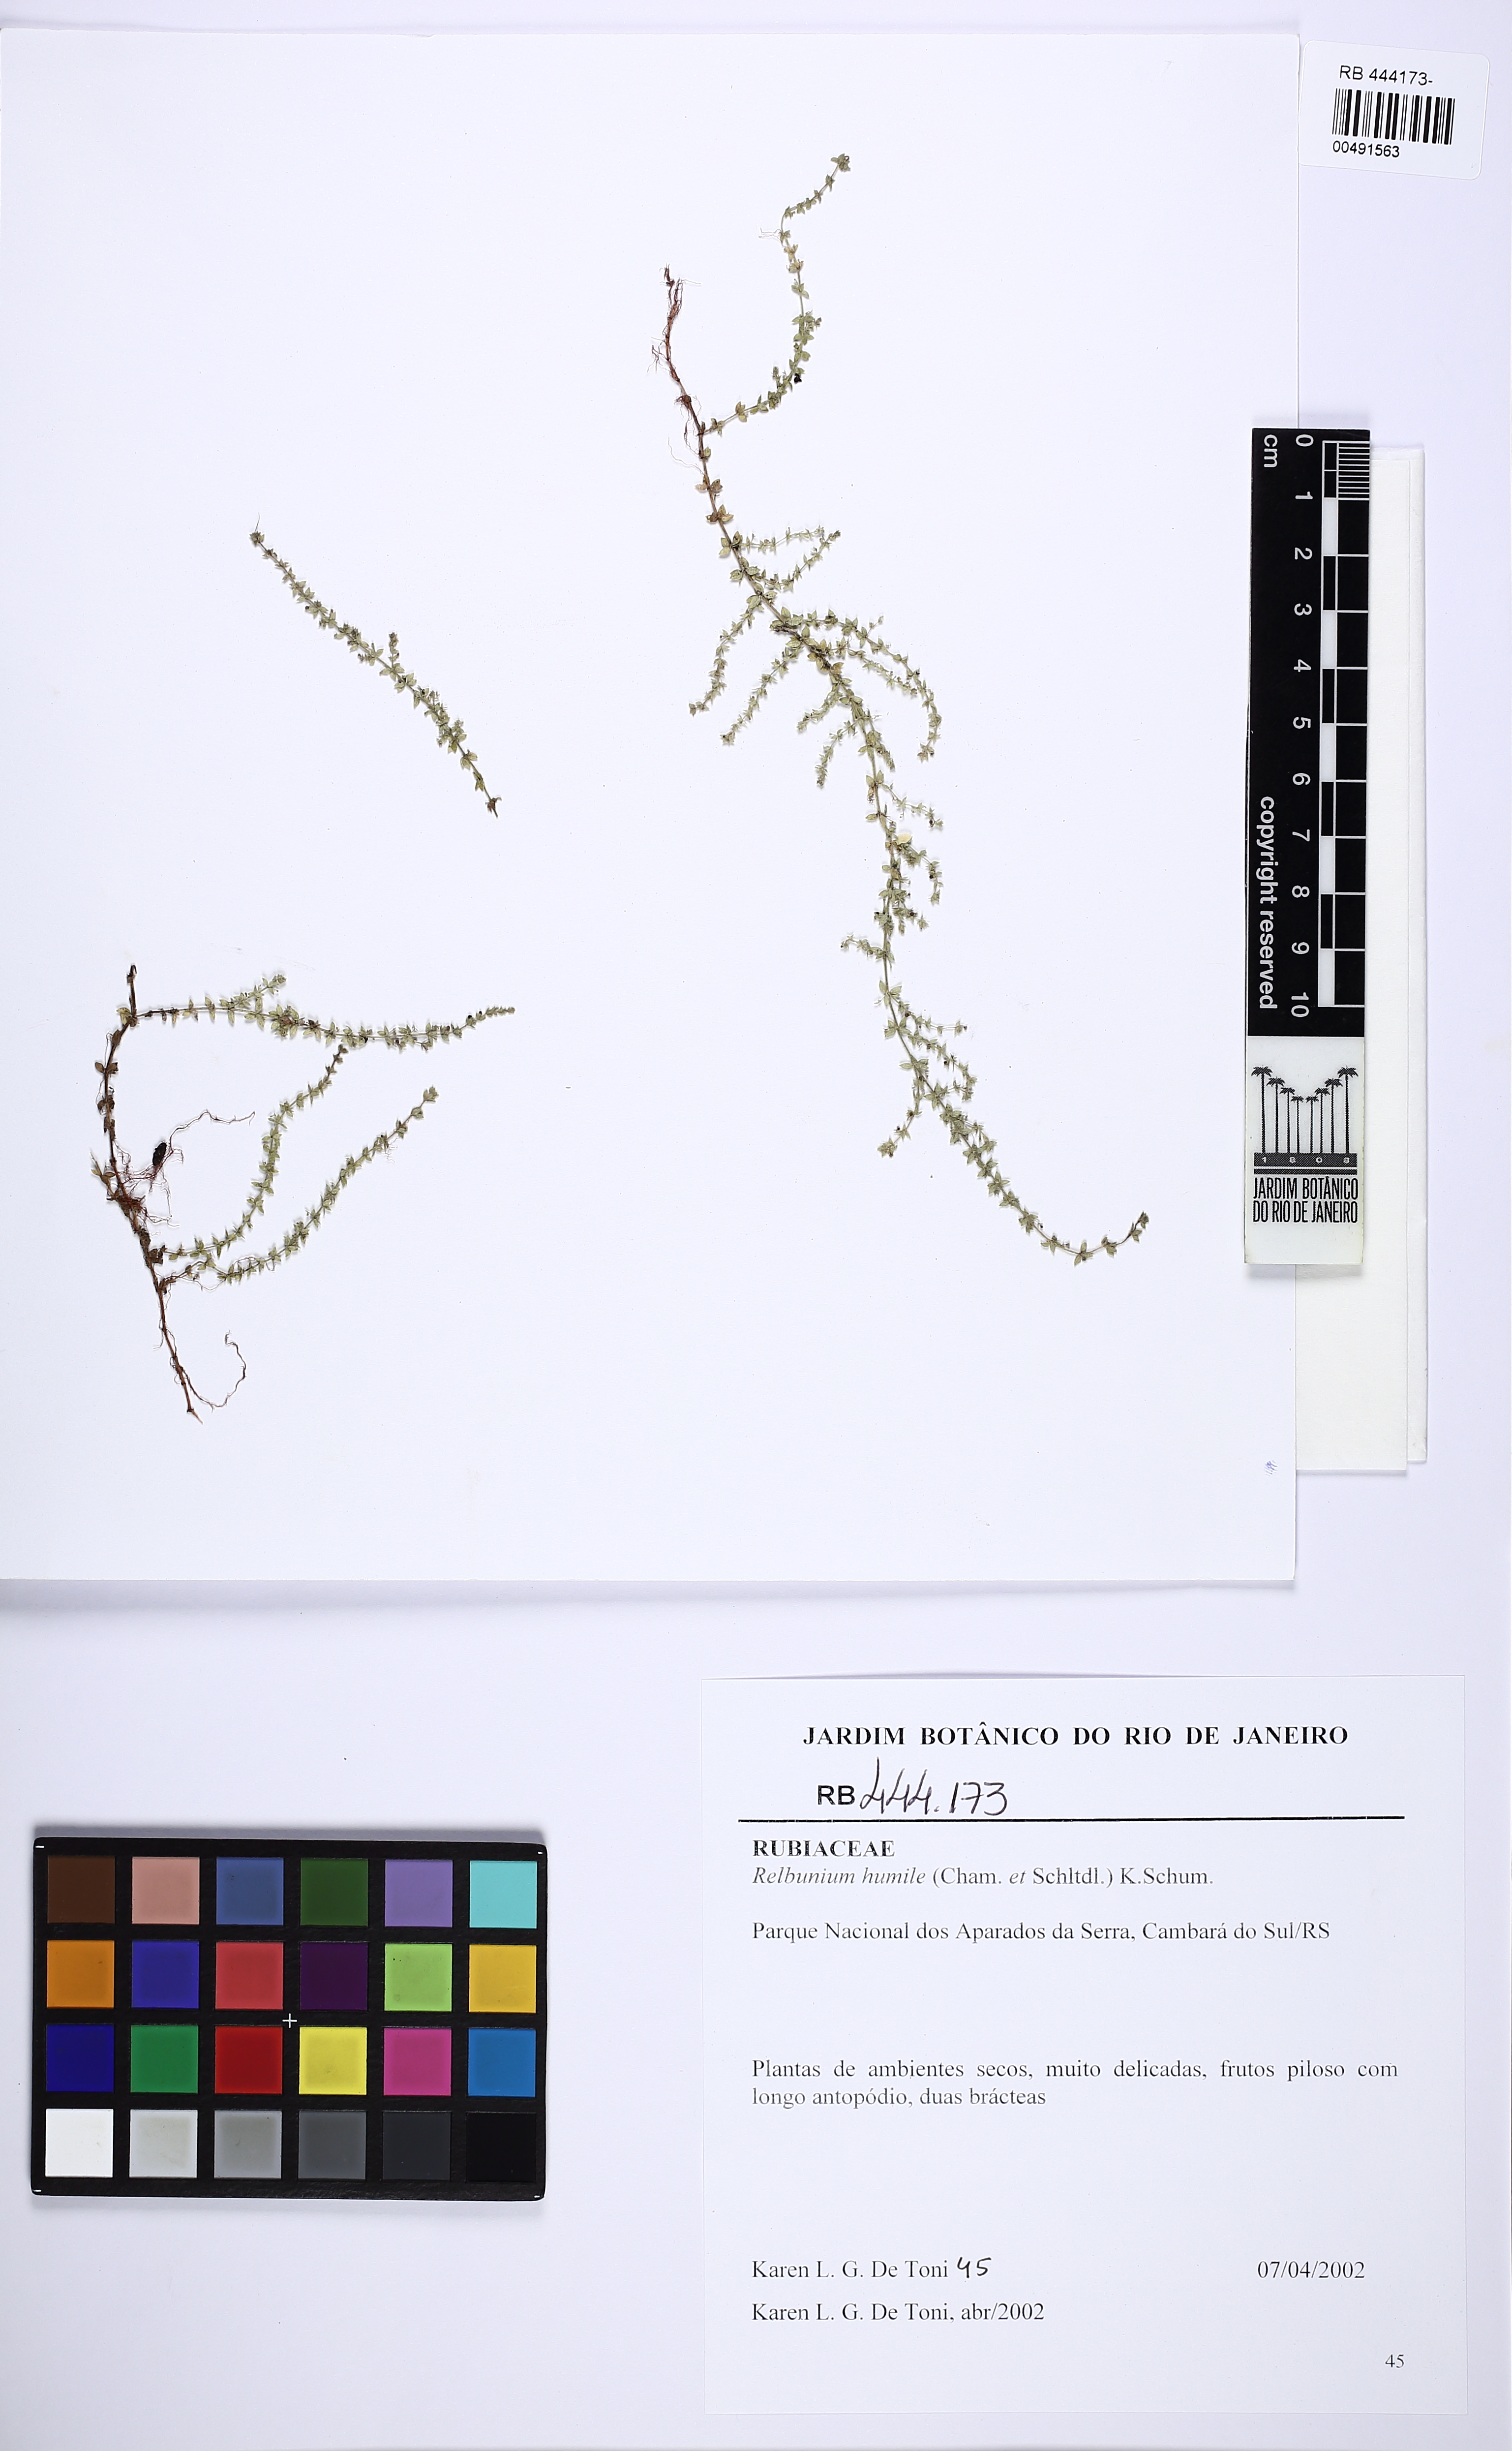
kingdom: Plantae
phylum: Tracheophyta
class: Magnoliopsida
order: Gentianales
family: Rubiaceae
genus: Galium
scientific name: Galium humile
